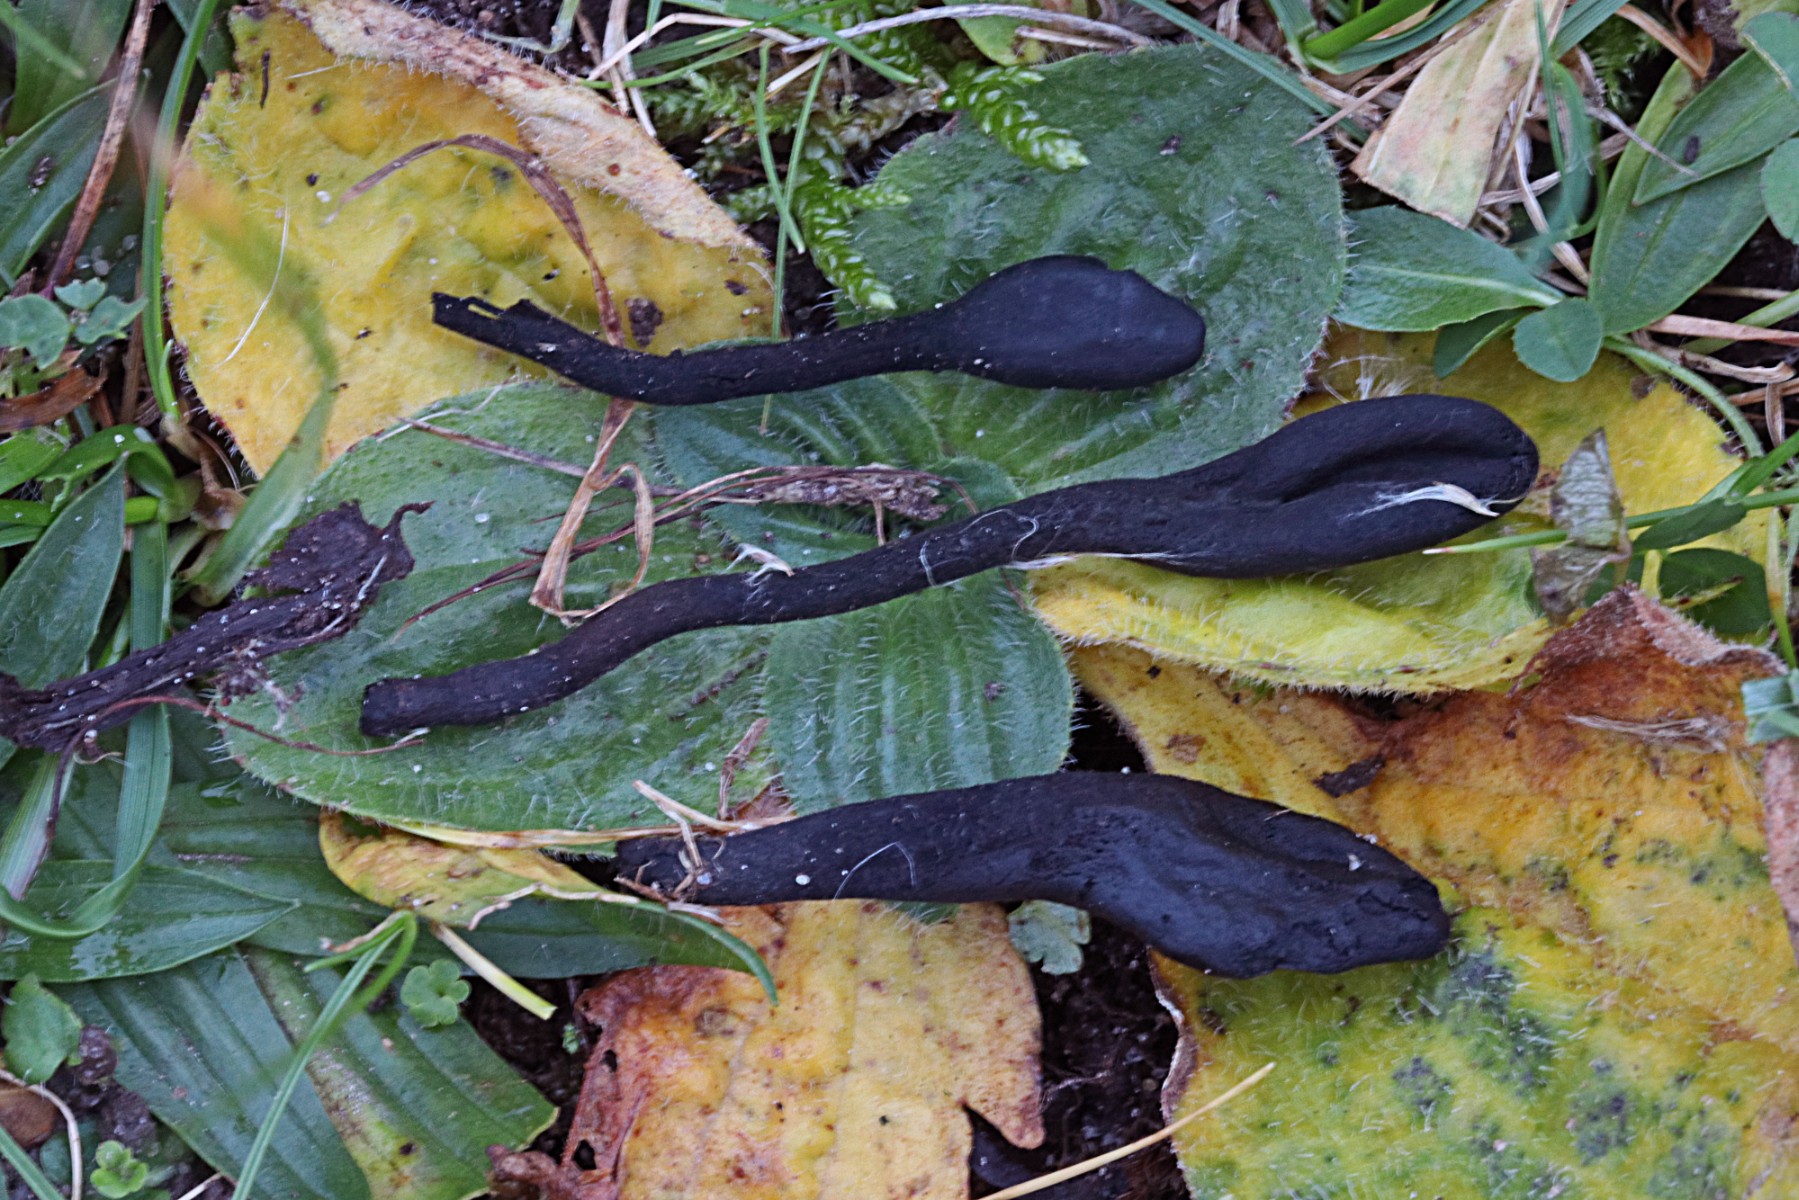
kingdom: Fungi
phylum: Ascomycota
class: Geoglossomycetes
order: Geoglossales
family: Geoglossaceae
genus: Trichoglossum
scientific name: Trichoglossum hirsutum
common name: håret jordtunge
